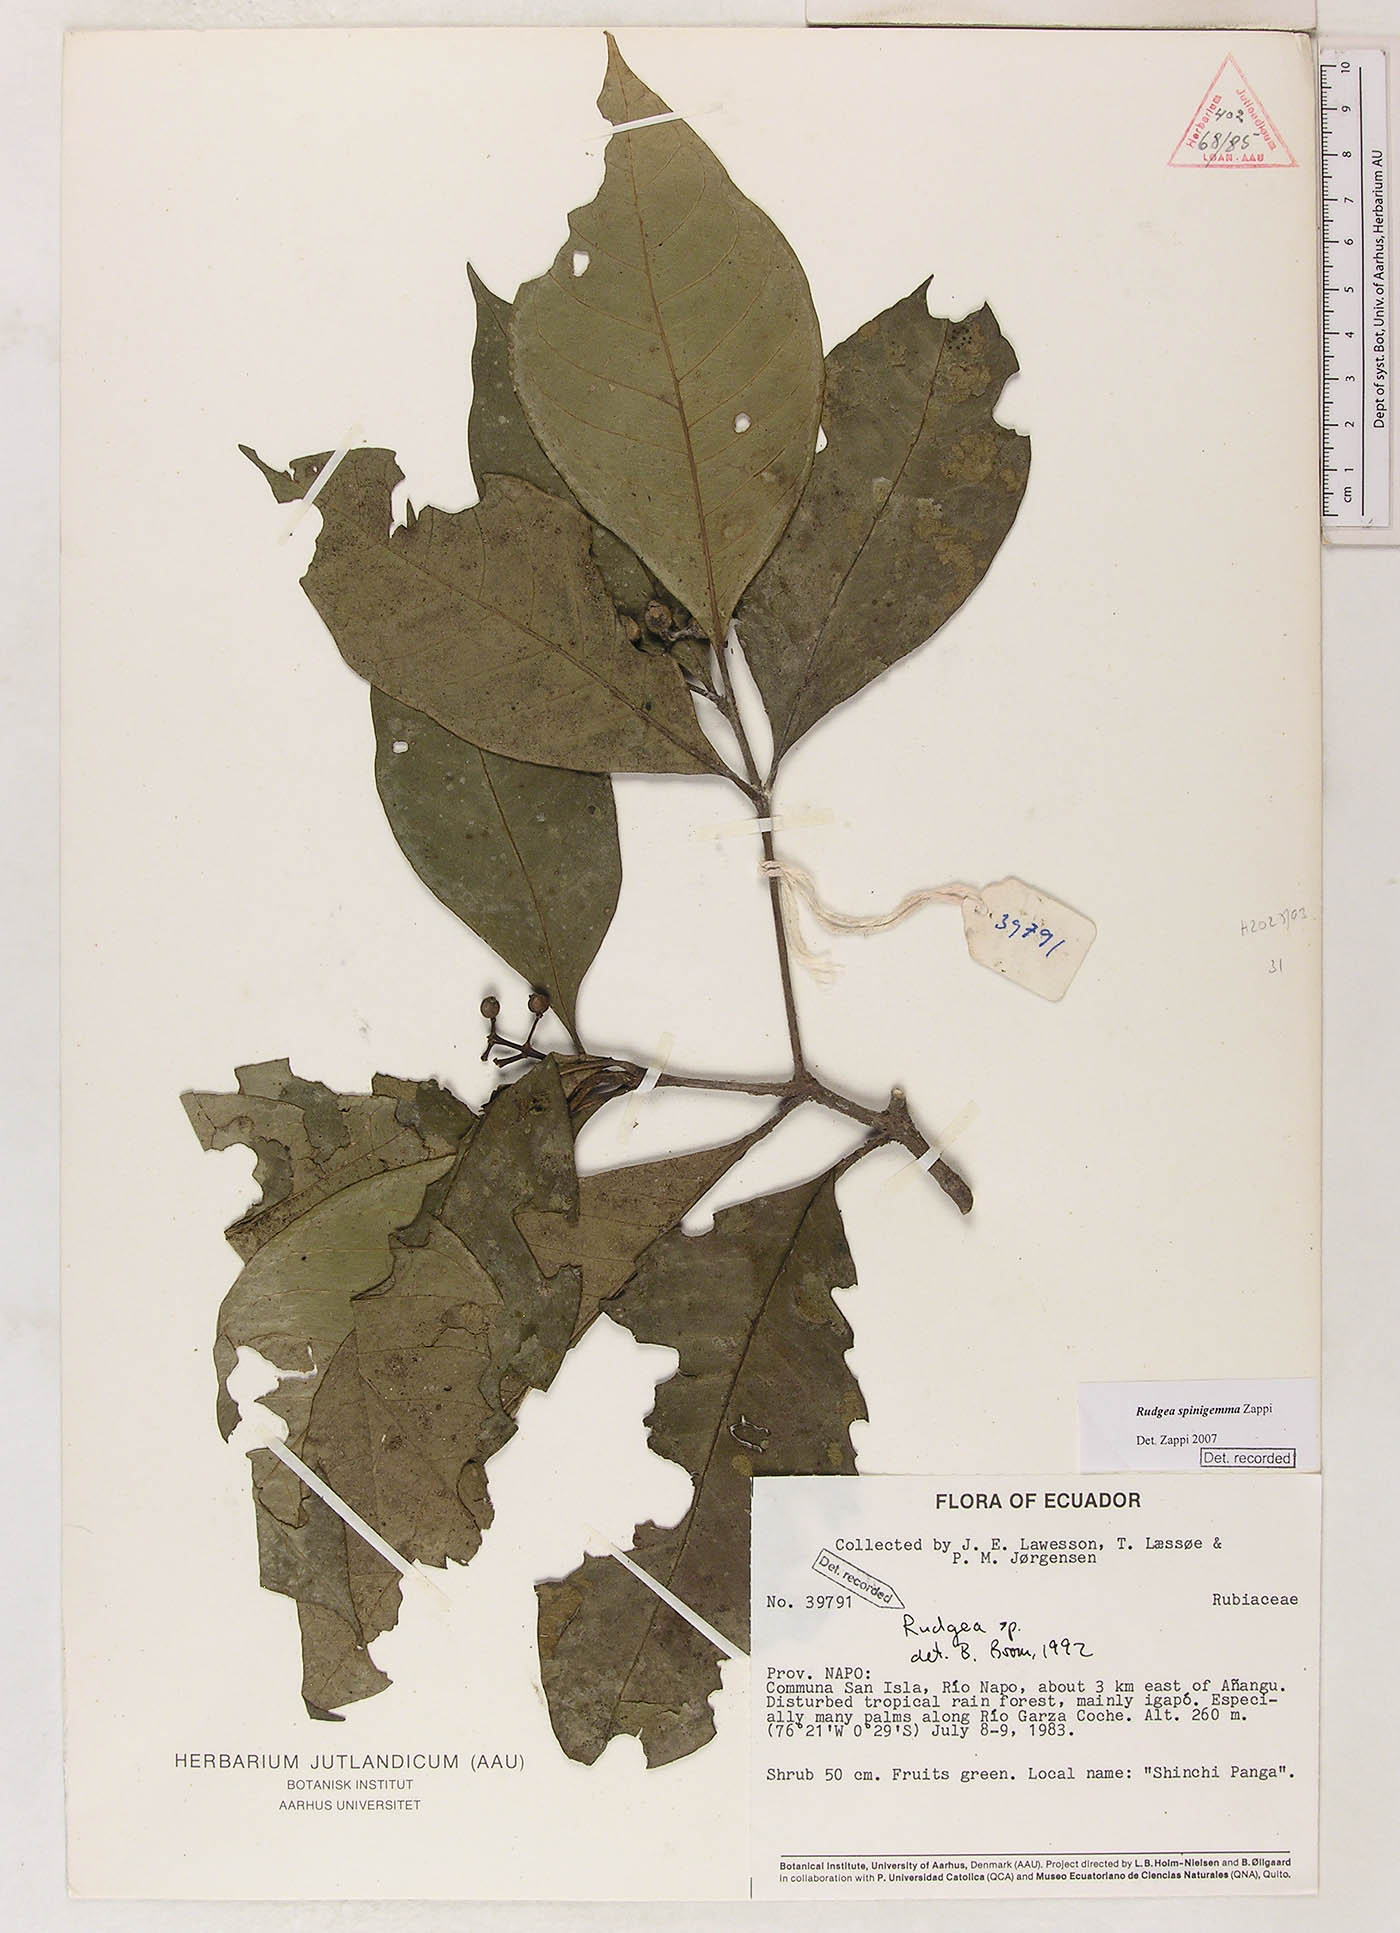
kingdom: Plantae
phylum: Tracheophyta
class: Magnoliopsida
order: Gentianales
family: Rubiaceae
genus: Rudgea
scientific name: Rudgea spinigemma
